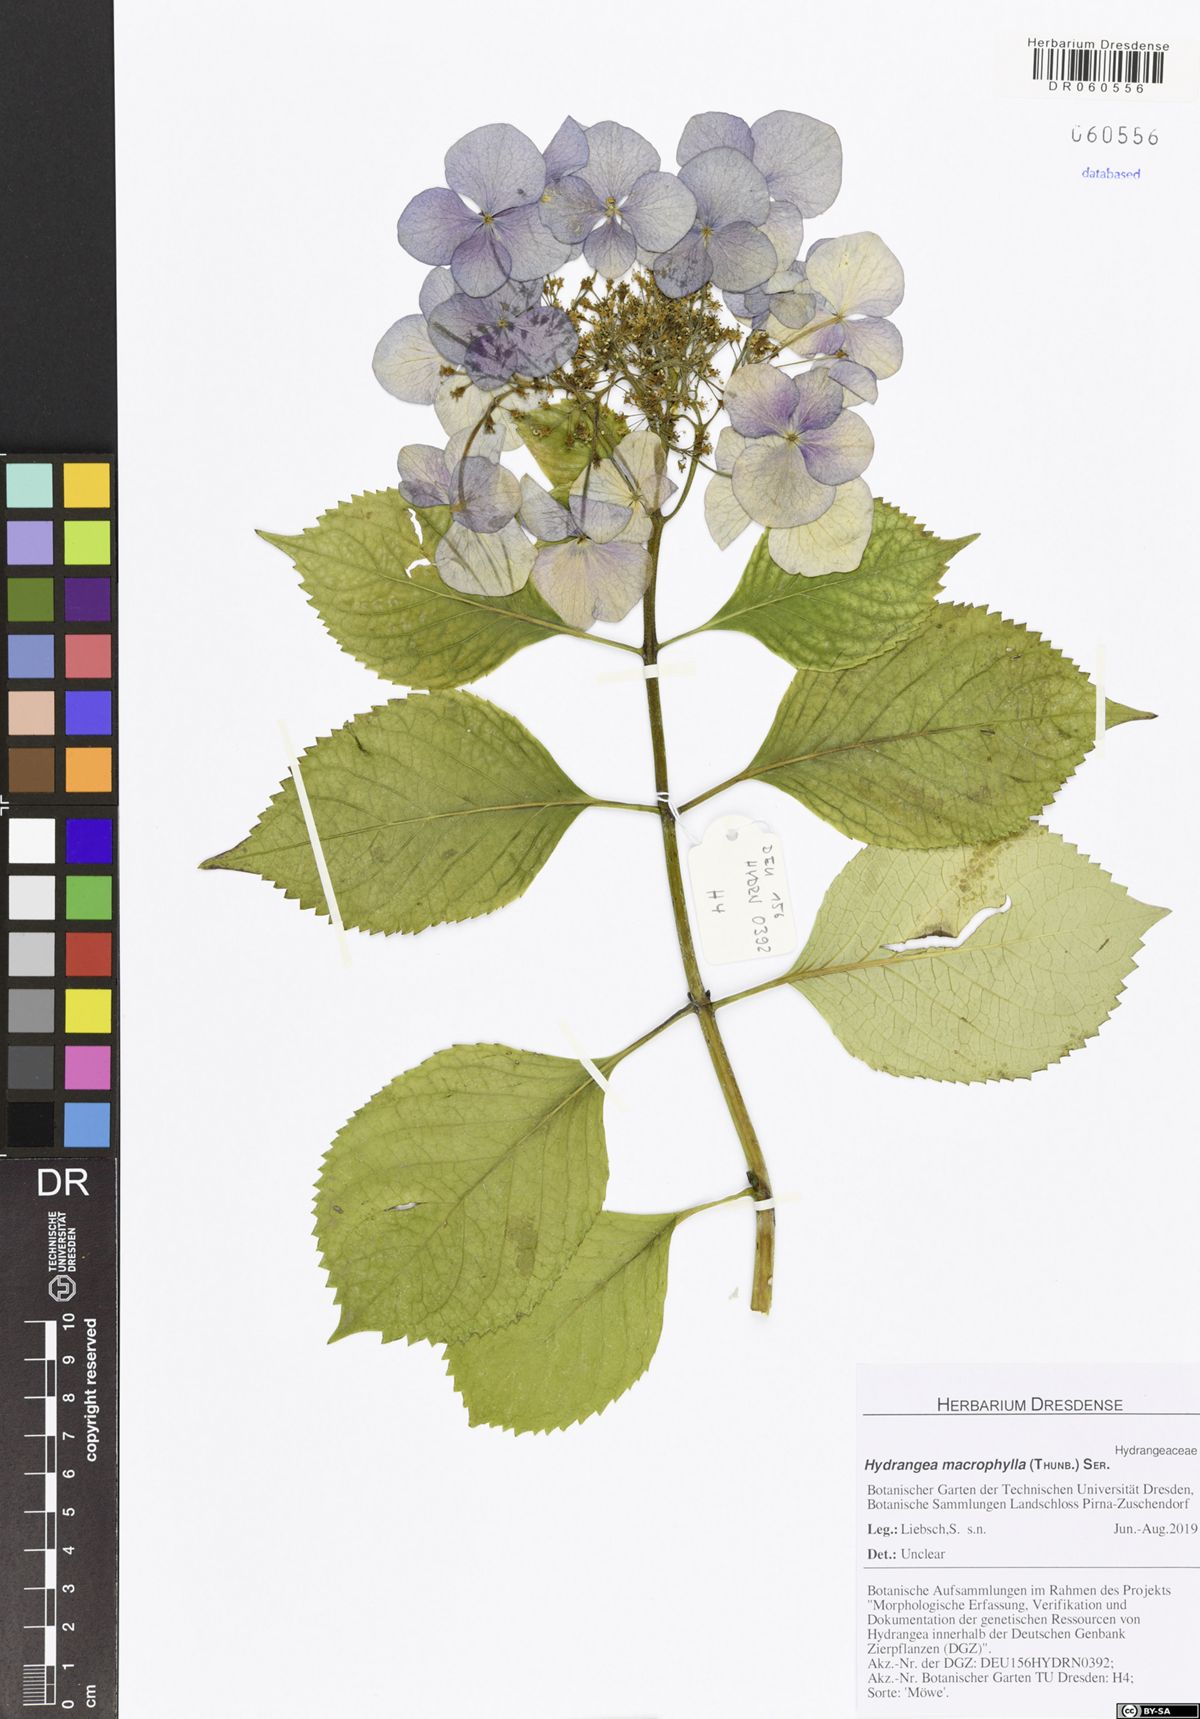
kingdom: Plantae
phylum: Tracheophyta
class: Magnoliopsida
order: Cornales
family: Hydrangeaceae
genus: Hydrangea
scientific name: Hydrangea macrophylla
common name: Hydrangea
